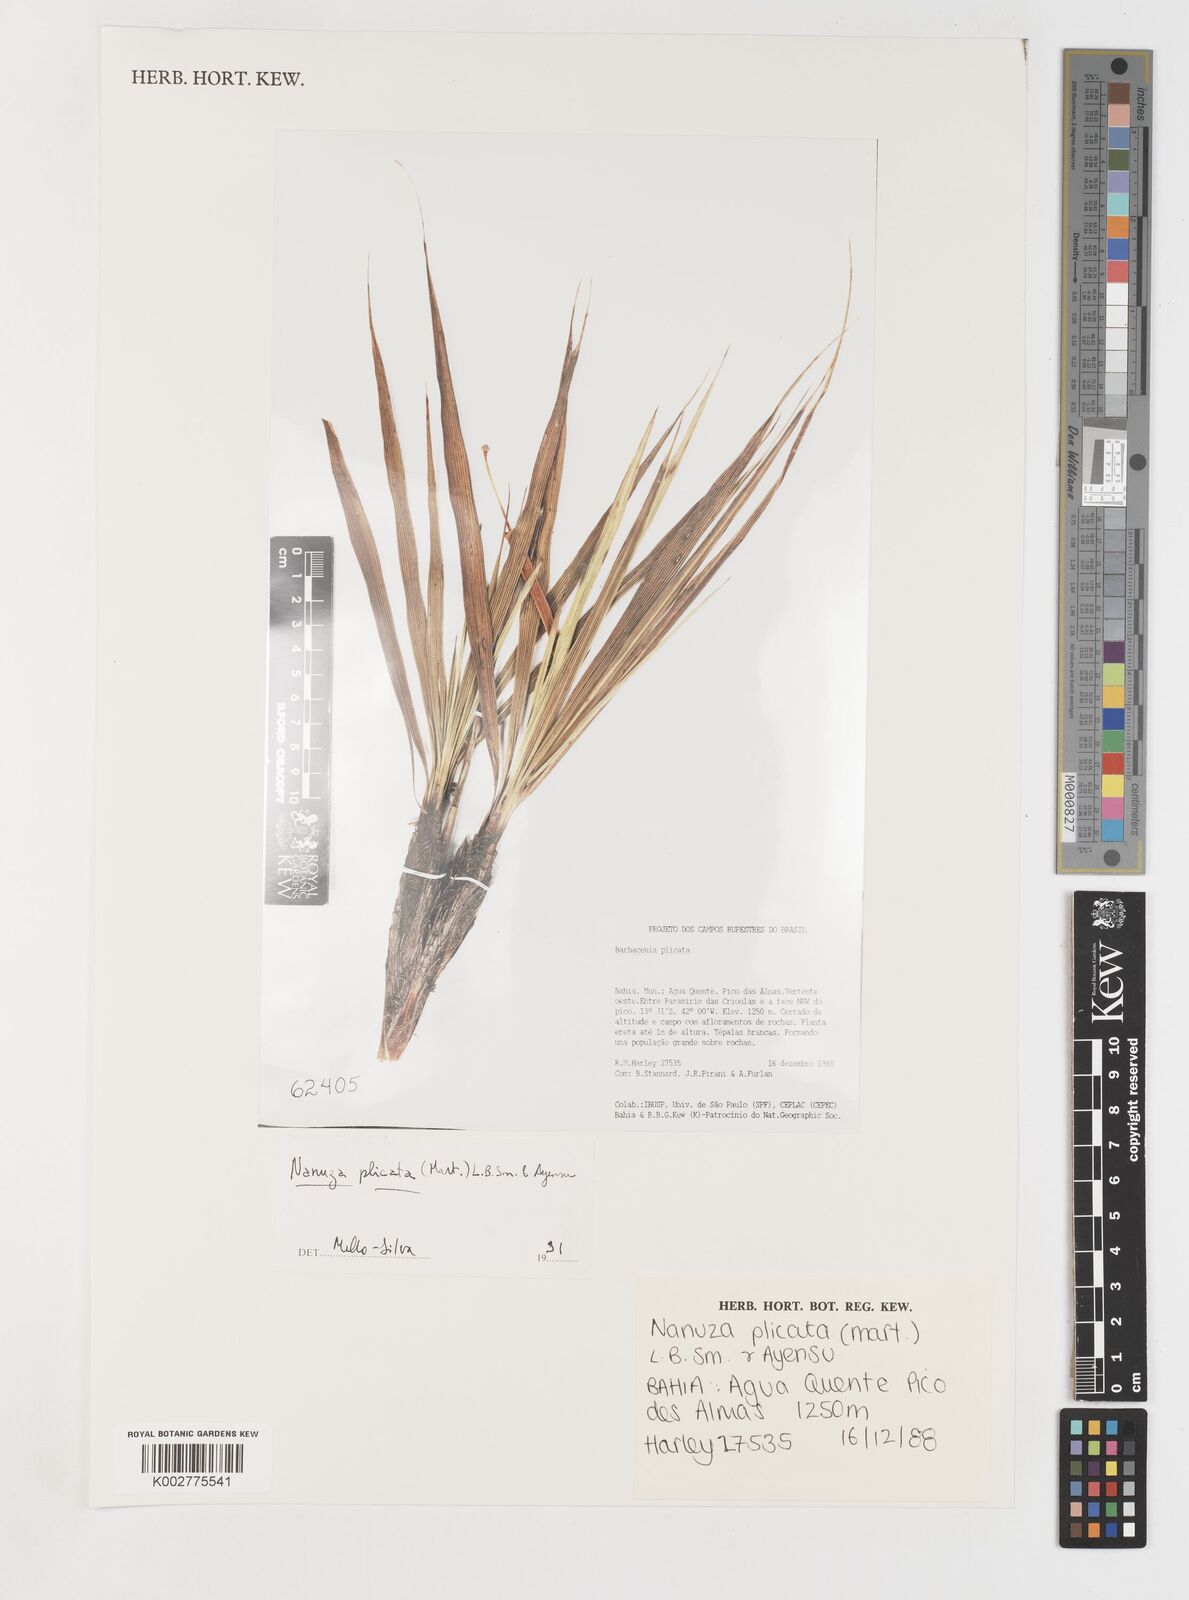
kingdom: Plantae
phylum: Tracheophyta
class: Liliopsida
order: Pandanales
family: Velloziaceae
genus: Nanuza
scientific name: Nanuza plicata
